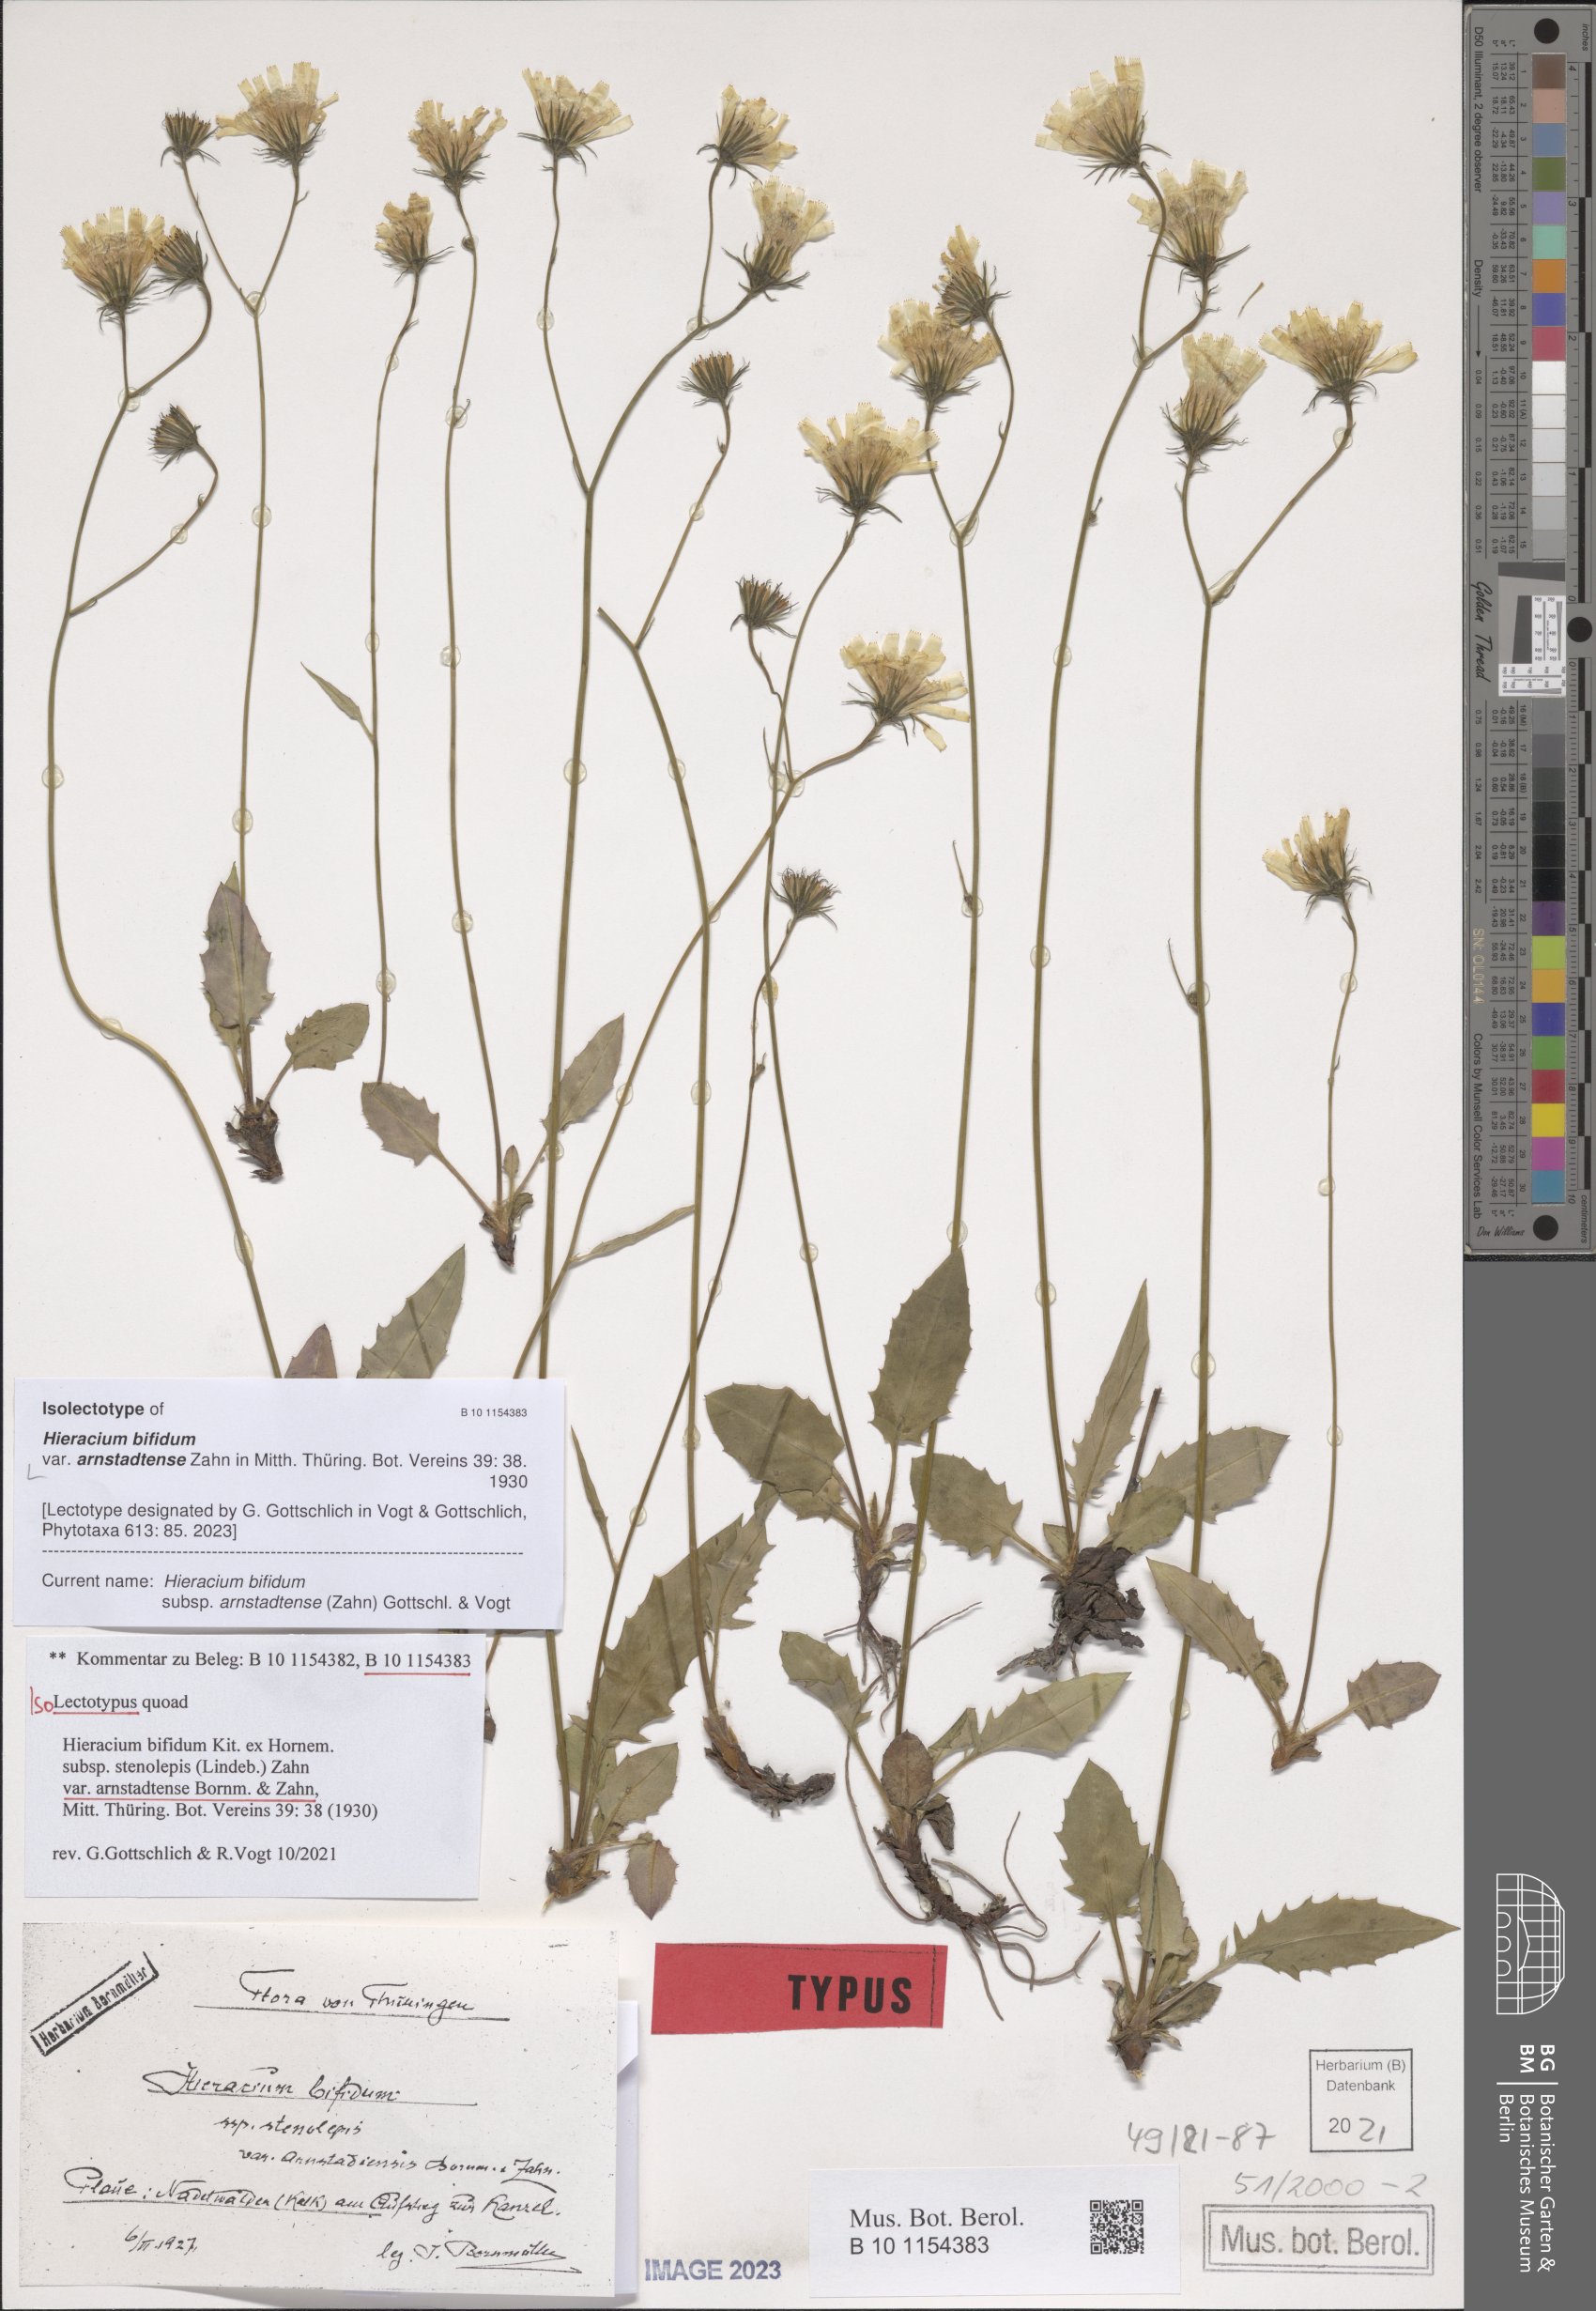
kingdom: Plantae
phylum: Tracheophyta
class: Magnoliopsida
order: Asterales
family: Asteraceae
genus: Hieracium
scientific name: Hieracium bifidum
